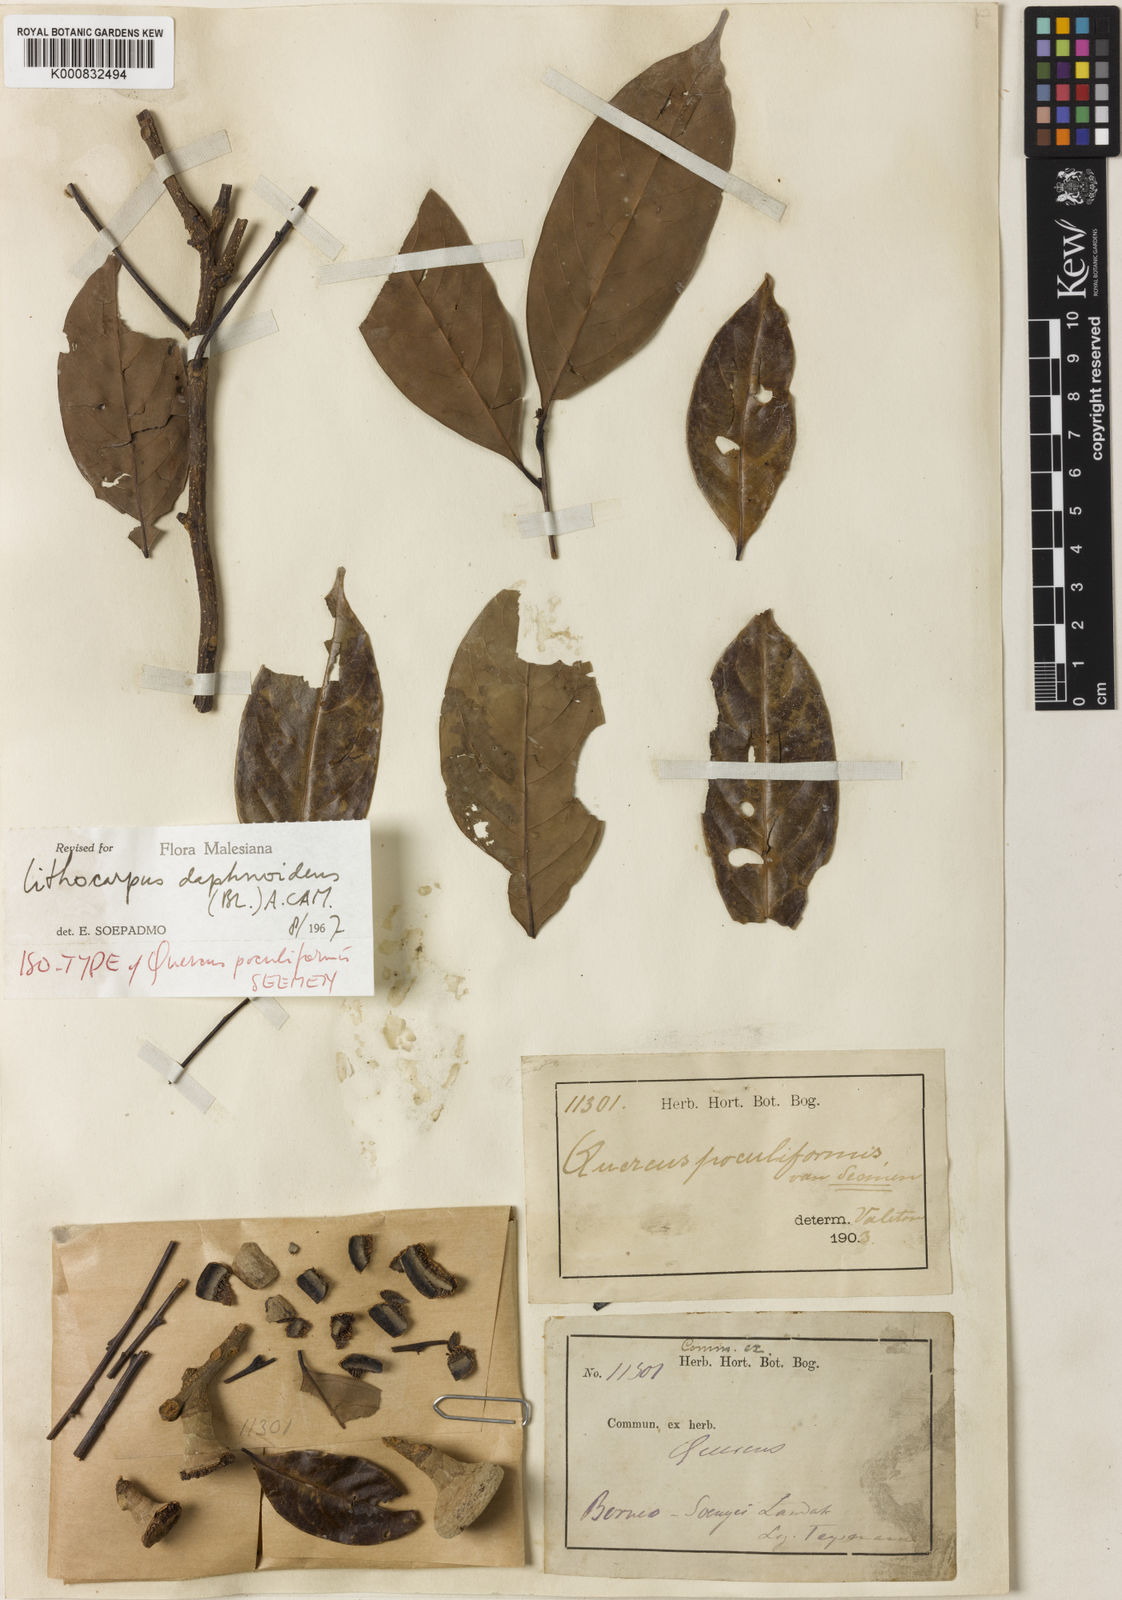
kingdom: Plantae
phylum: Tracheophyta
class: Magnoliopsida
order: Fagales
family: Fagaceae
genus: Lithocarpus
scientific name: Lithocarpus daphnoideus
